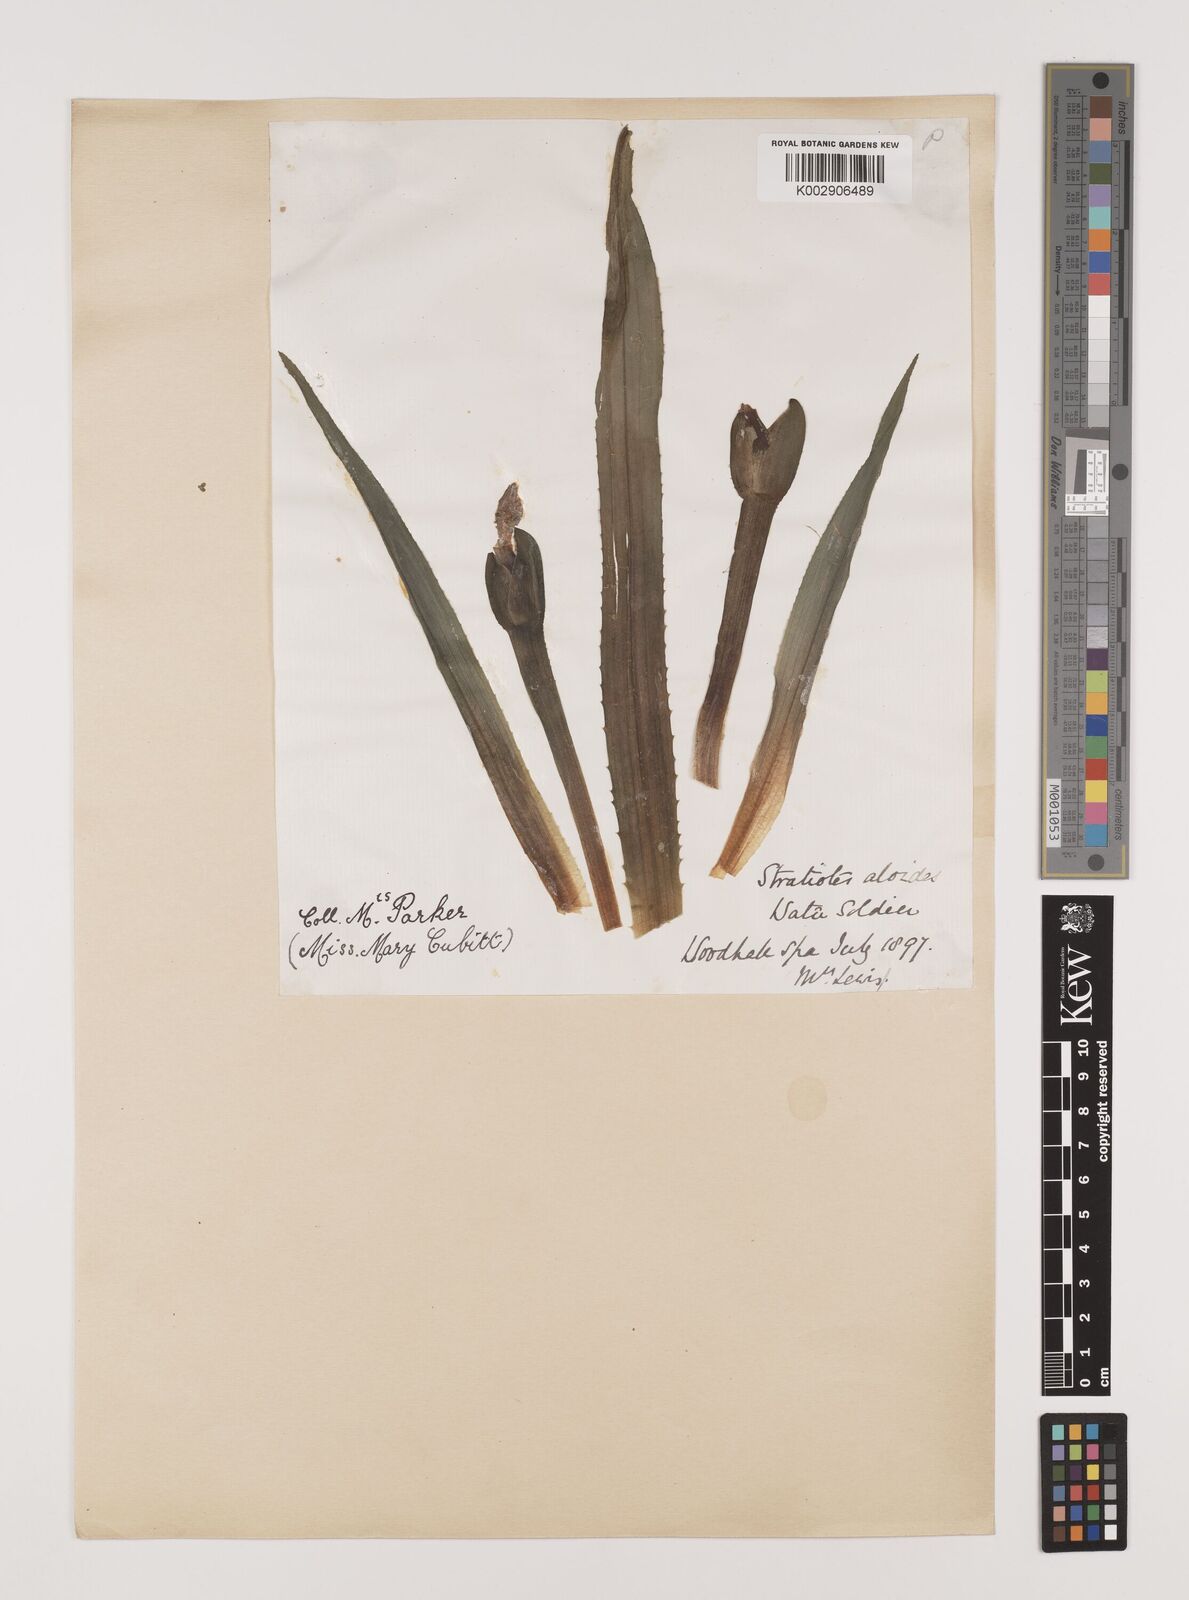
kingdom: Plantae
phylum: Tracheophyta
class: Liliopsida
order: Alismatales
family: Hydrocharitaceae
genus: Stratiotes
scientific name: Stratiotes aloides
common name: Water-soldier
